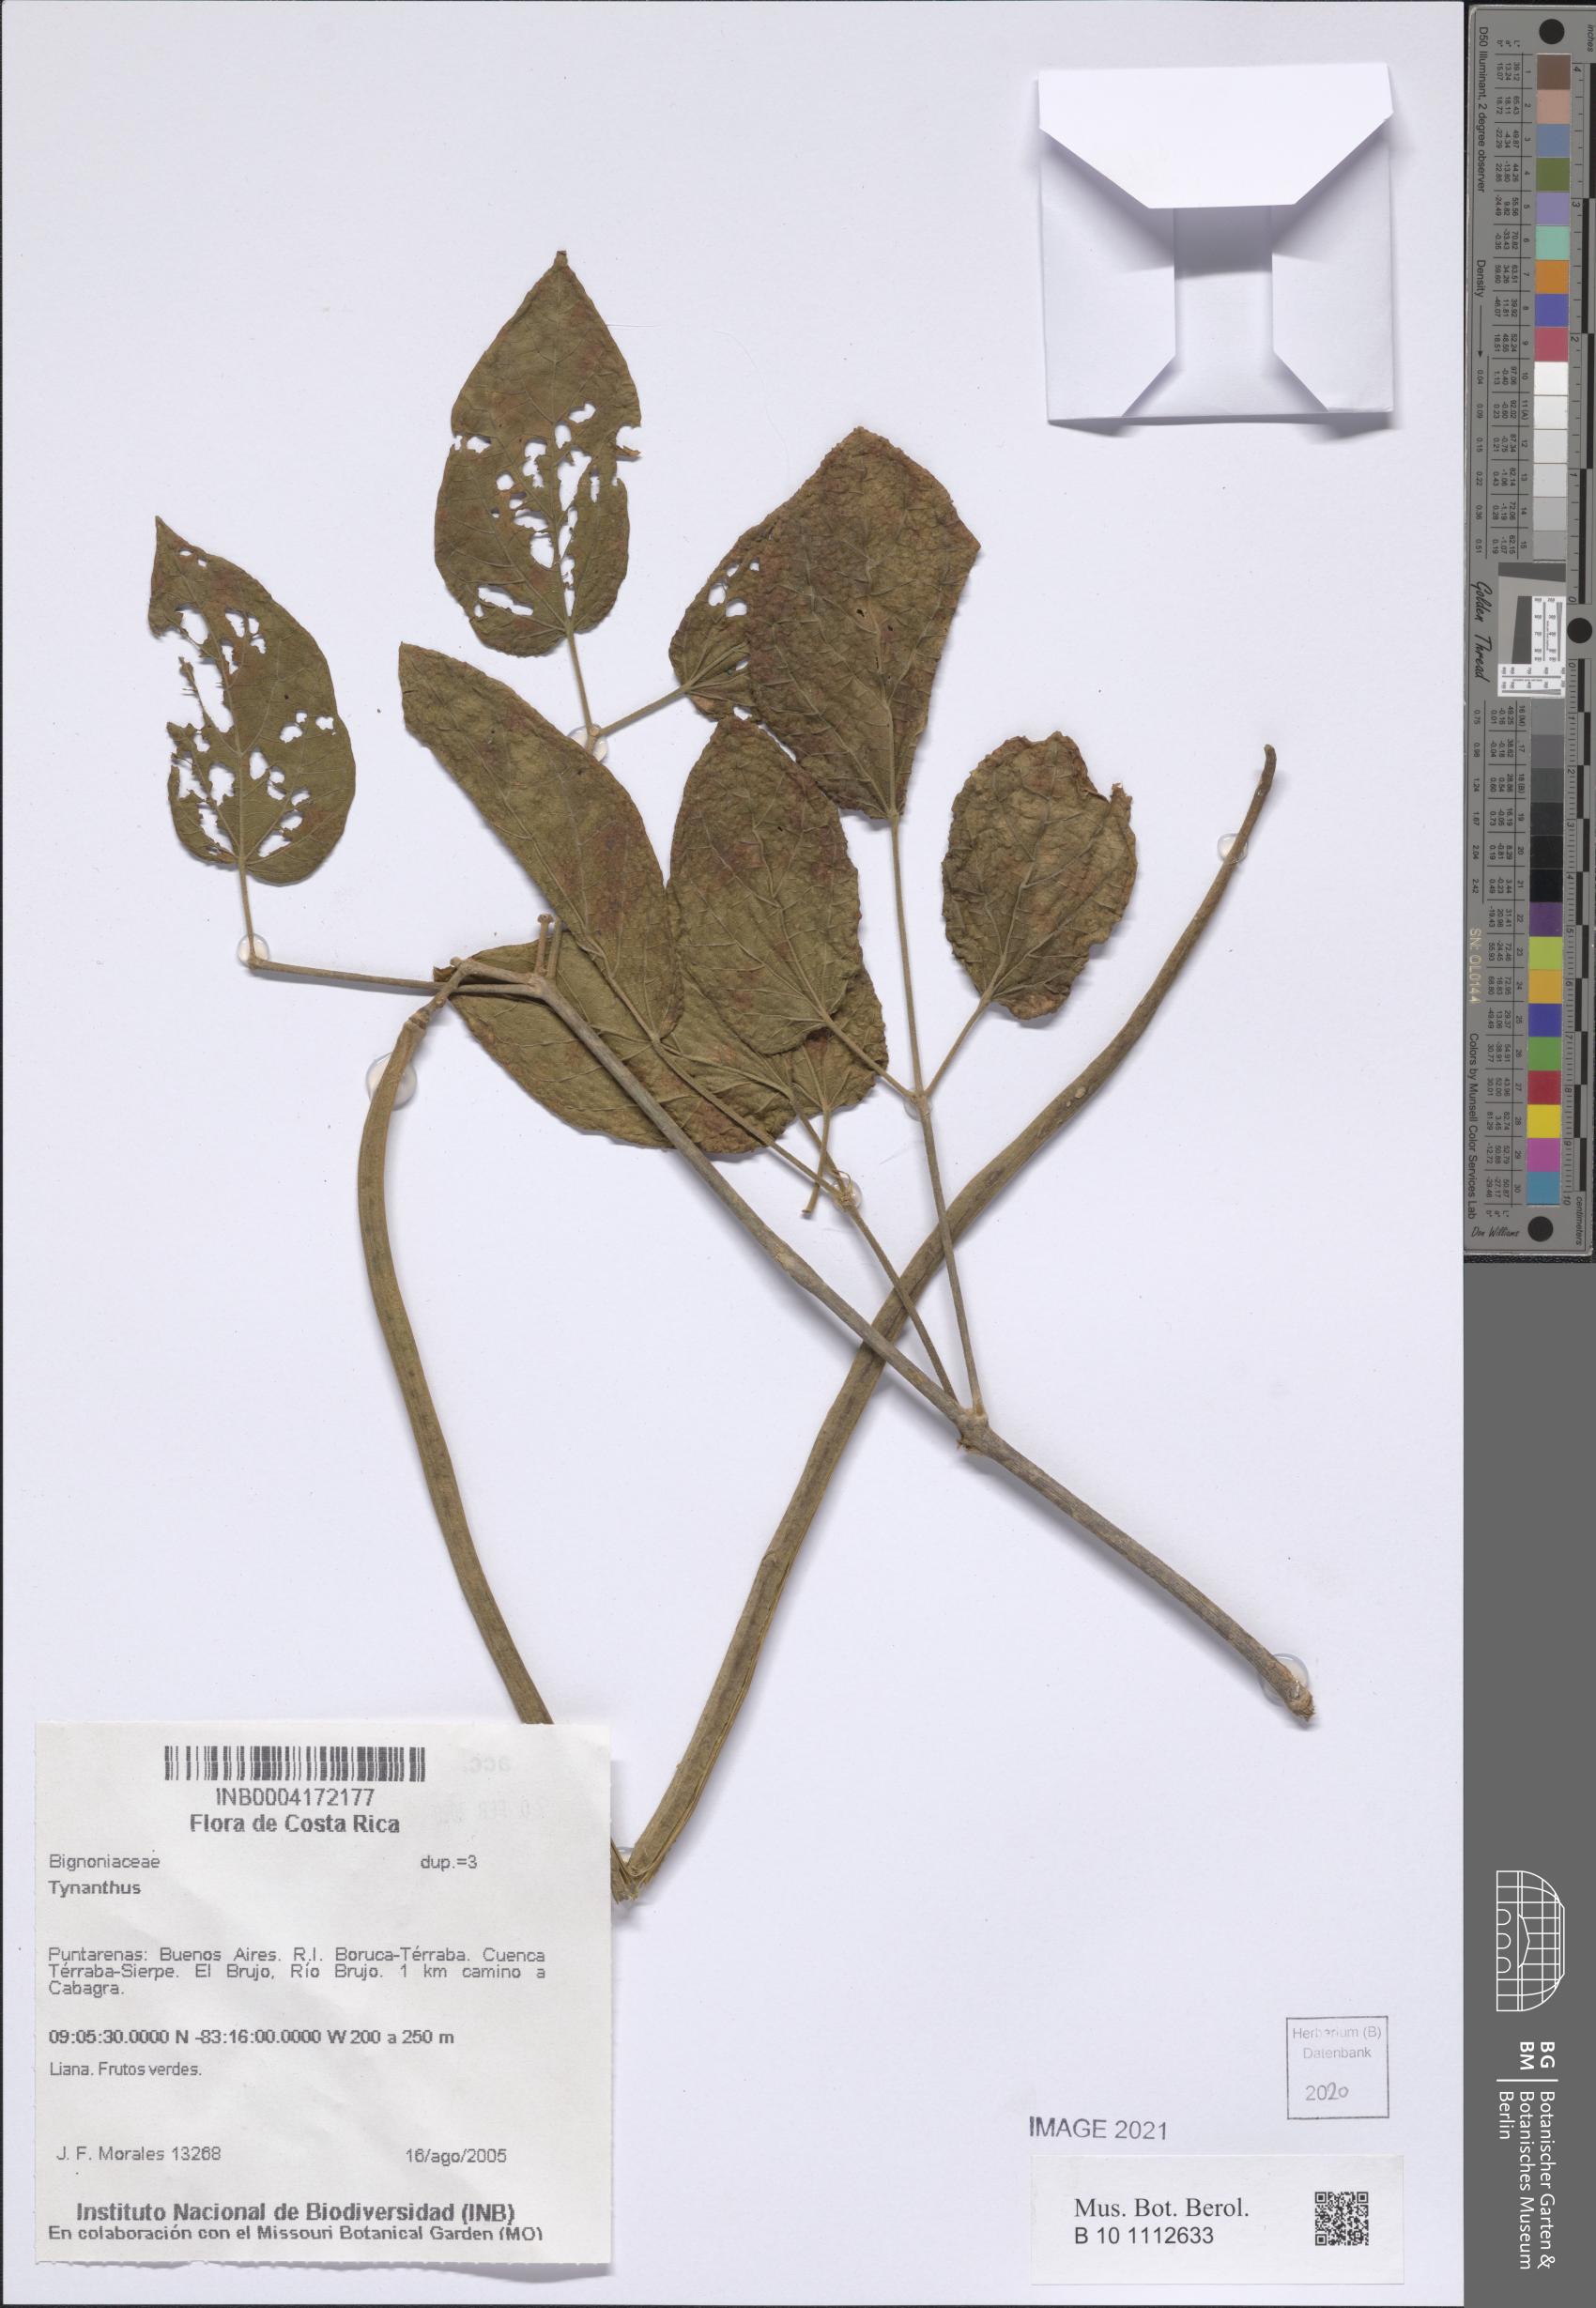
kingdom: Plantae
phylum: Tracheophyta
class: Magnoliopsida
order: Lamiales
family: Bignoniaceae
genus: Tynanthus
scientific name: Tynanthus
